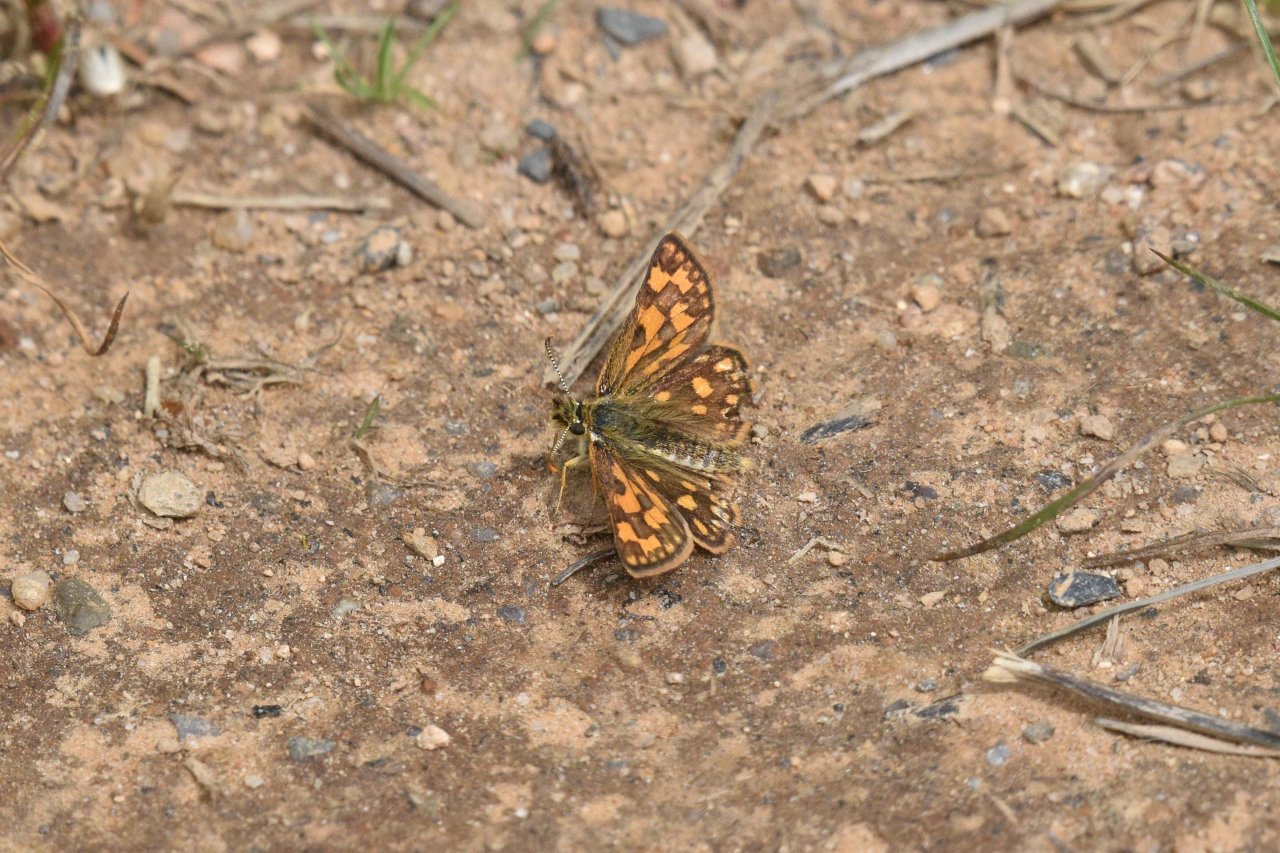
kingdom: Animalia
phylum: Arthropoda
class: Insecta
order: Lepidoptera
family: Hesperiidae
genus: Carterocephalus
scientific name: Carterocephalus palaemon
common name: Chequered Skipper
